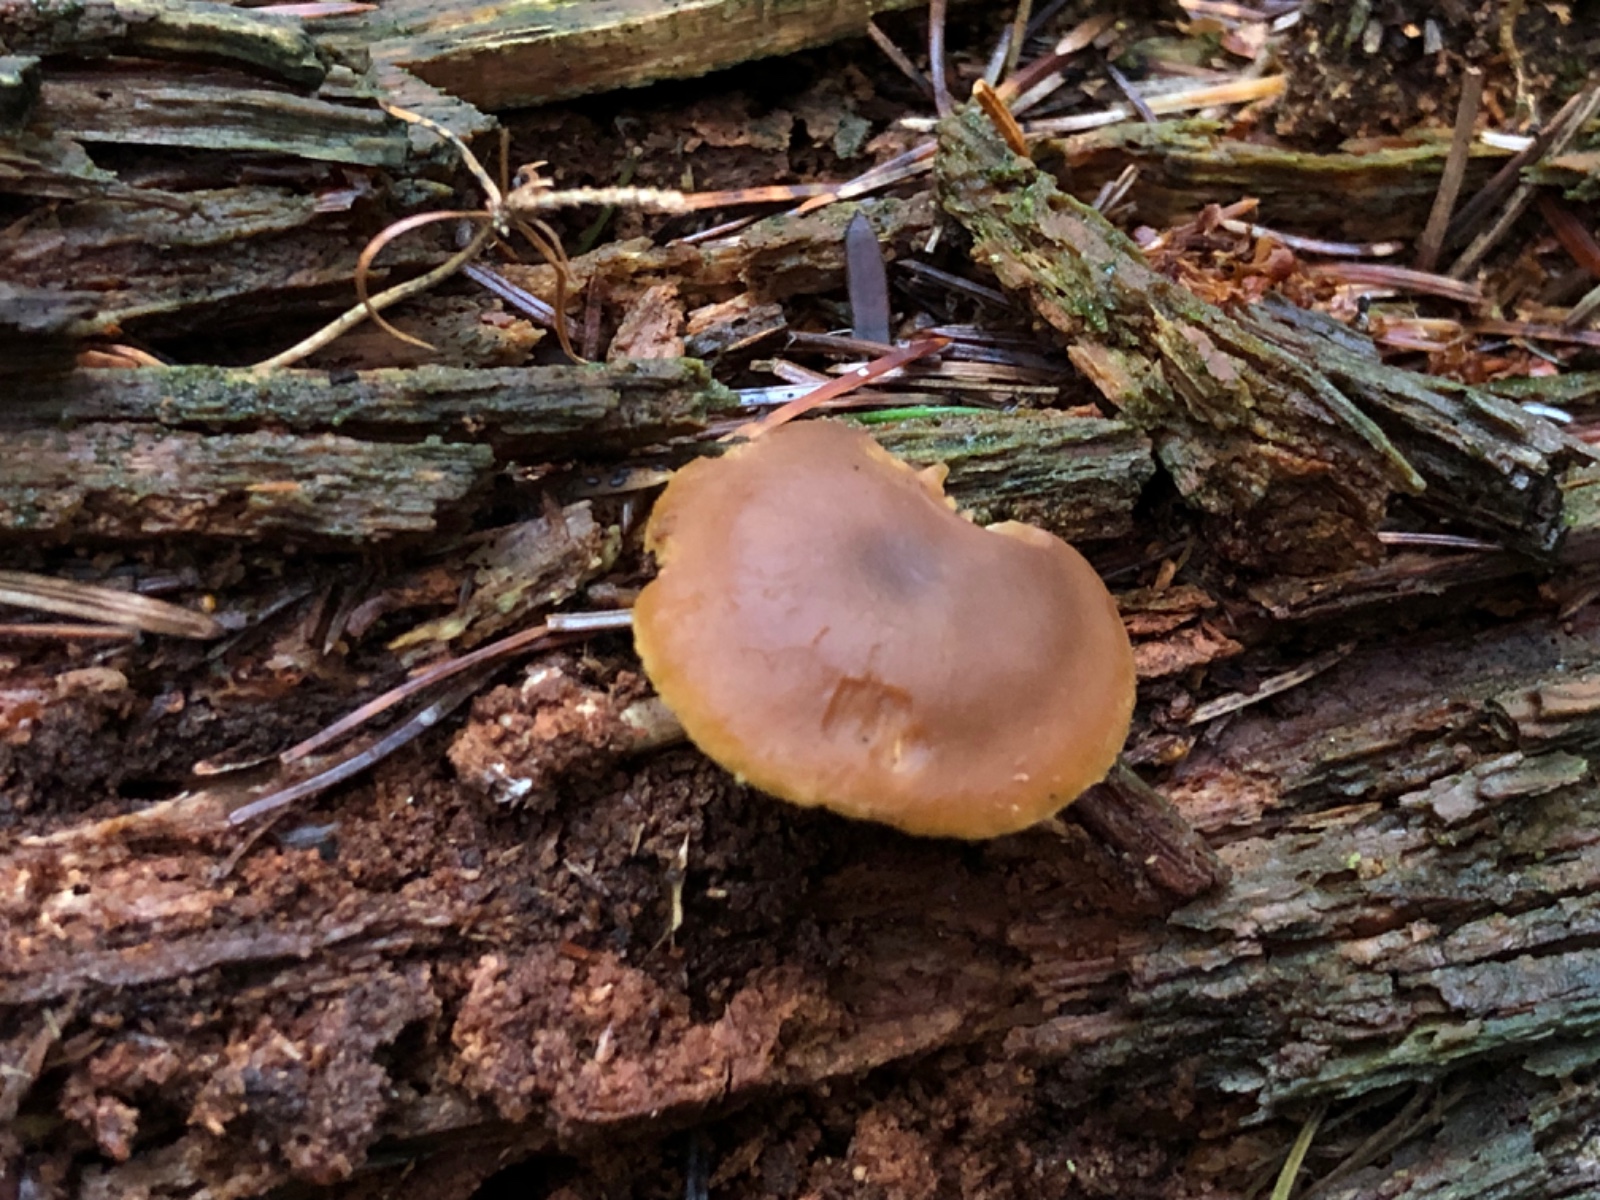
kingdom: Fungi
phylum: Basidiomycota
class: Agaricomycetes
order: Agaricales
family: Callistosporiaceae
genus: Callistosporium
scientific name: Callistosporium pinicola
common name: småsporet ravhat
